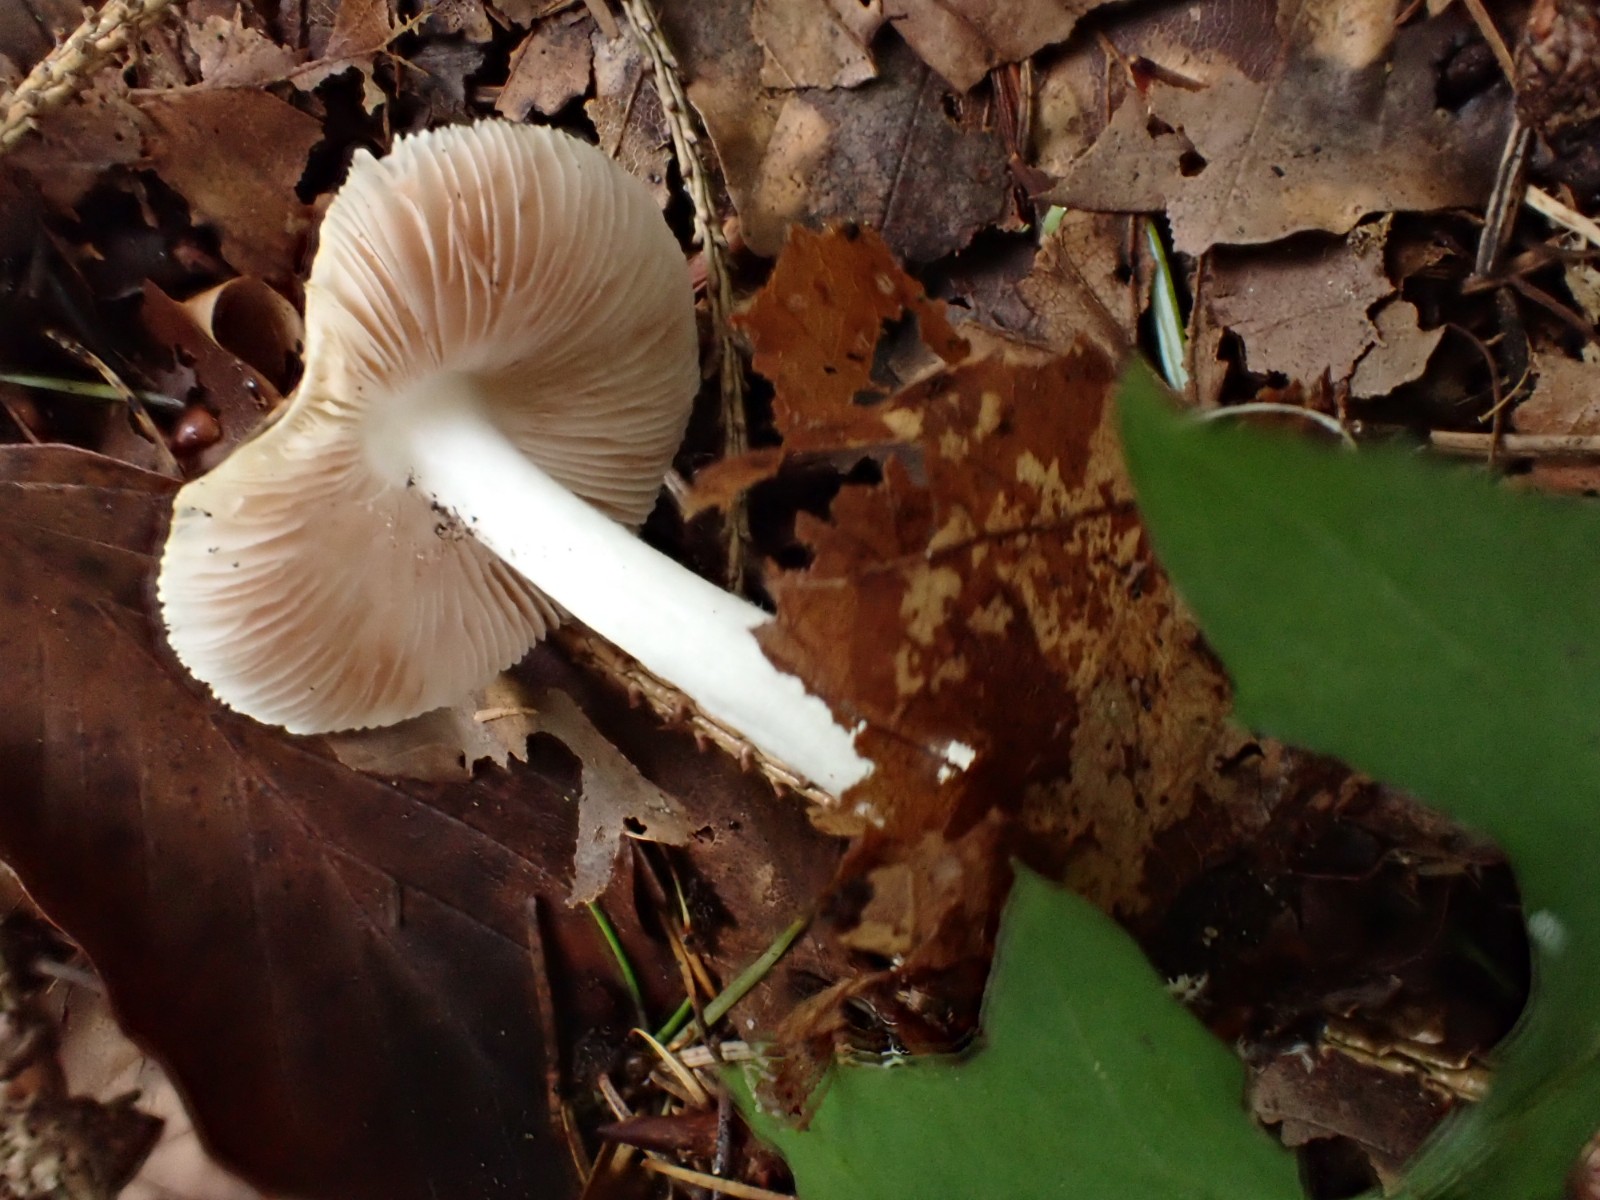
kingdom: Fungi
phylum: Basidiomycota
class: Agaricomycetes
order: Agaricales
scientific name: Agaricales
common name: champignonordenen
